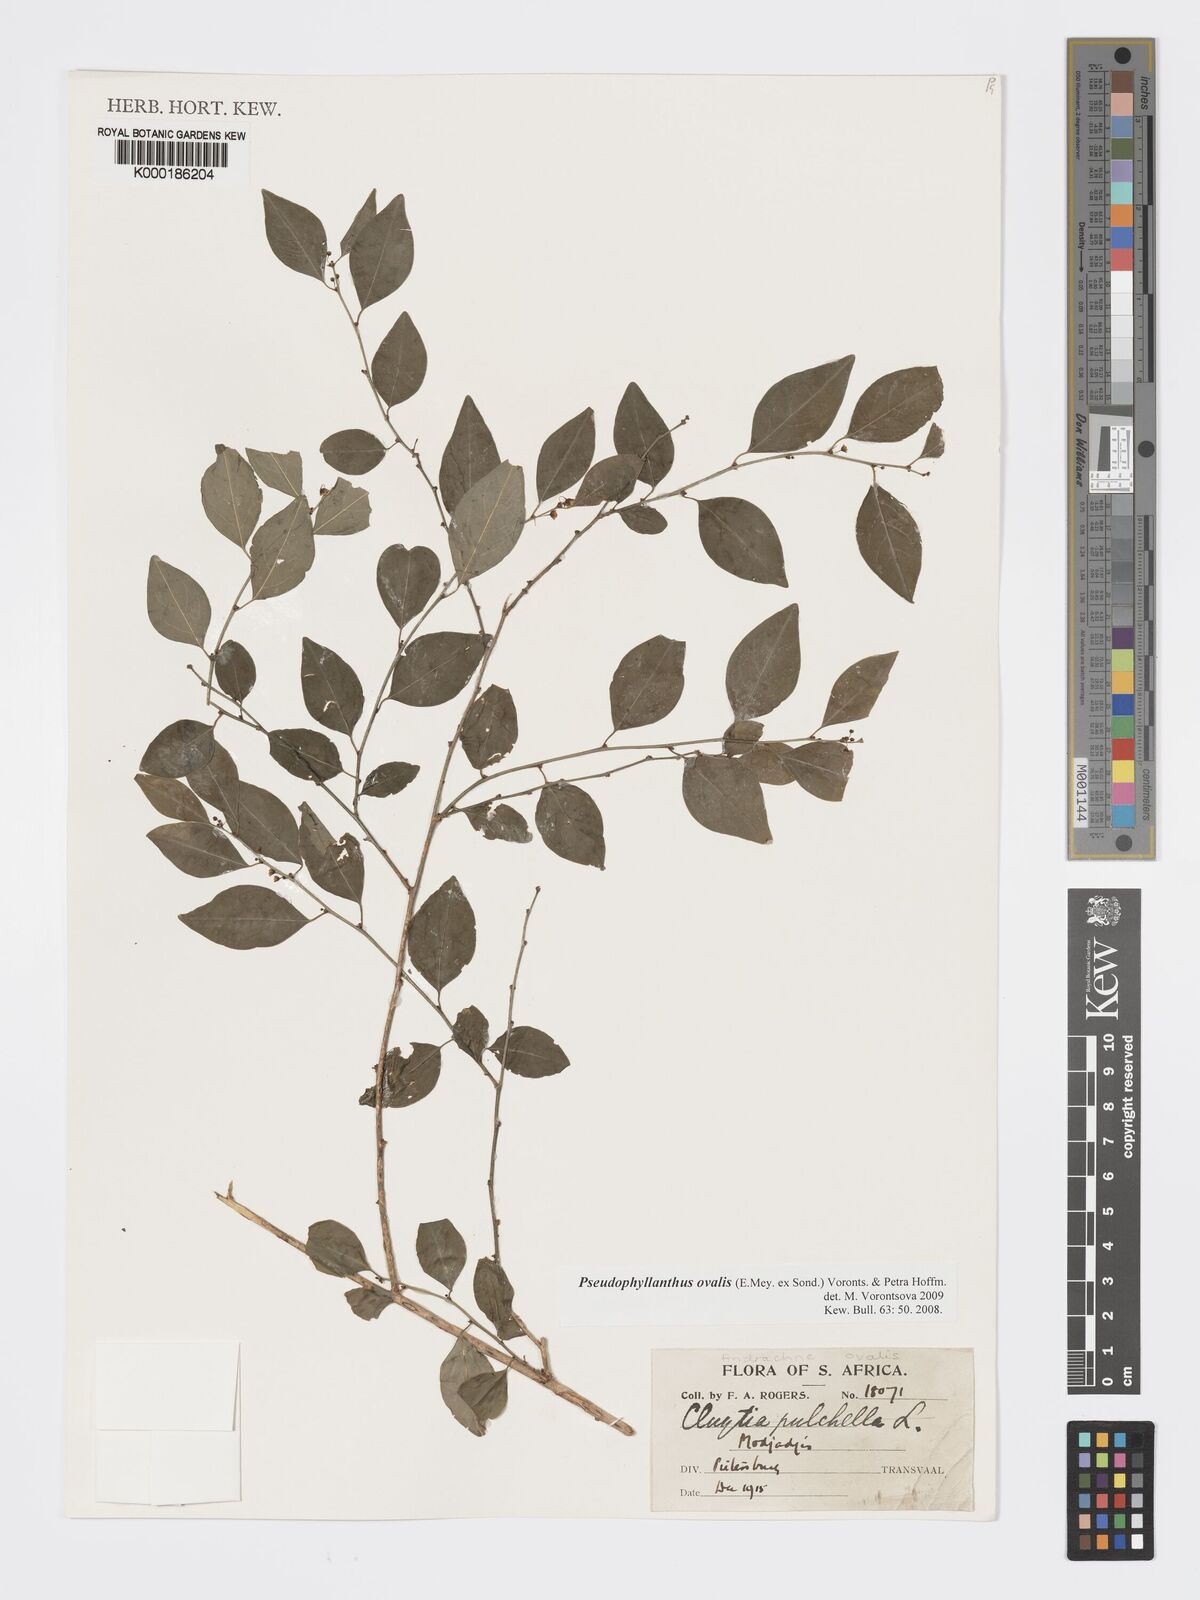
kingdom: Plantae
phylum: Tracheophyta
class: Magnoliopsida
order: Malpighiales
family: Phyllanthaceae
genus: Pseudophyllanthus
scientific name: Pseudophyllanthus ovalis
